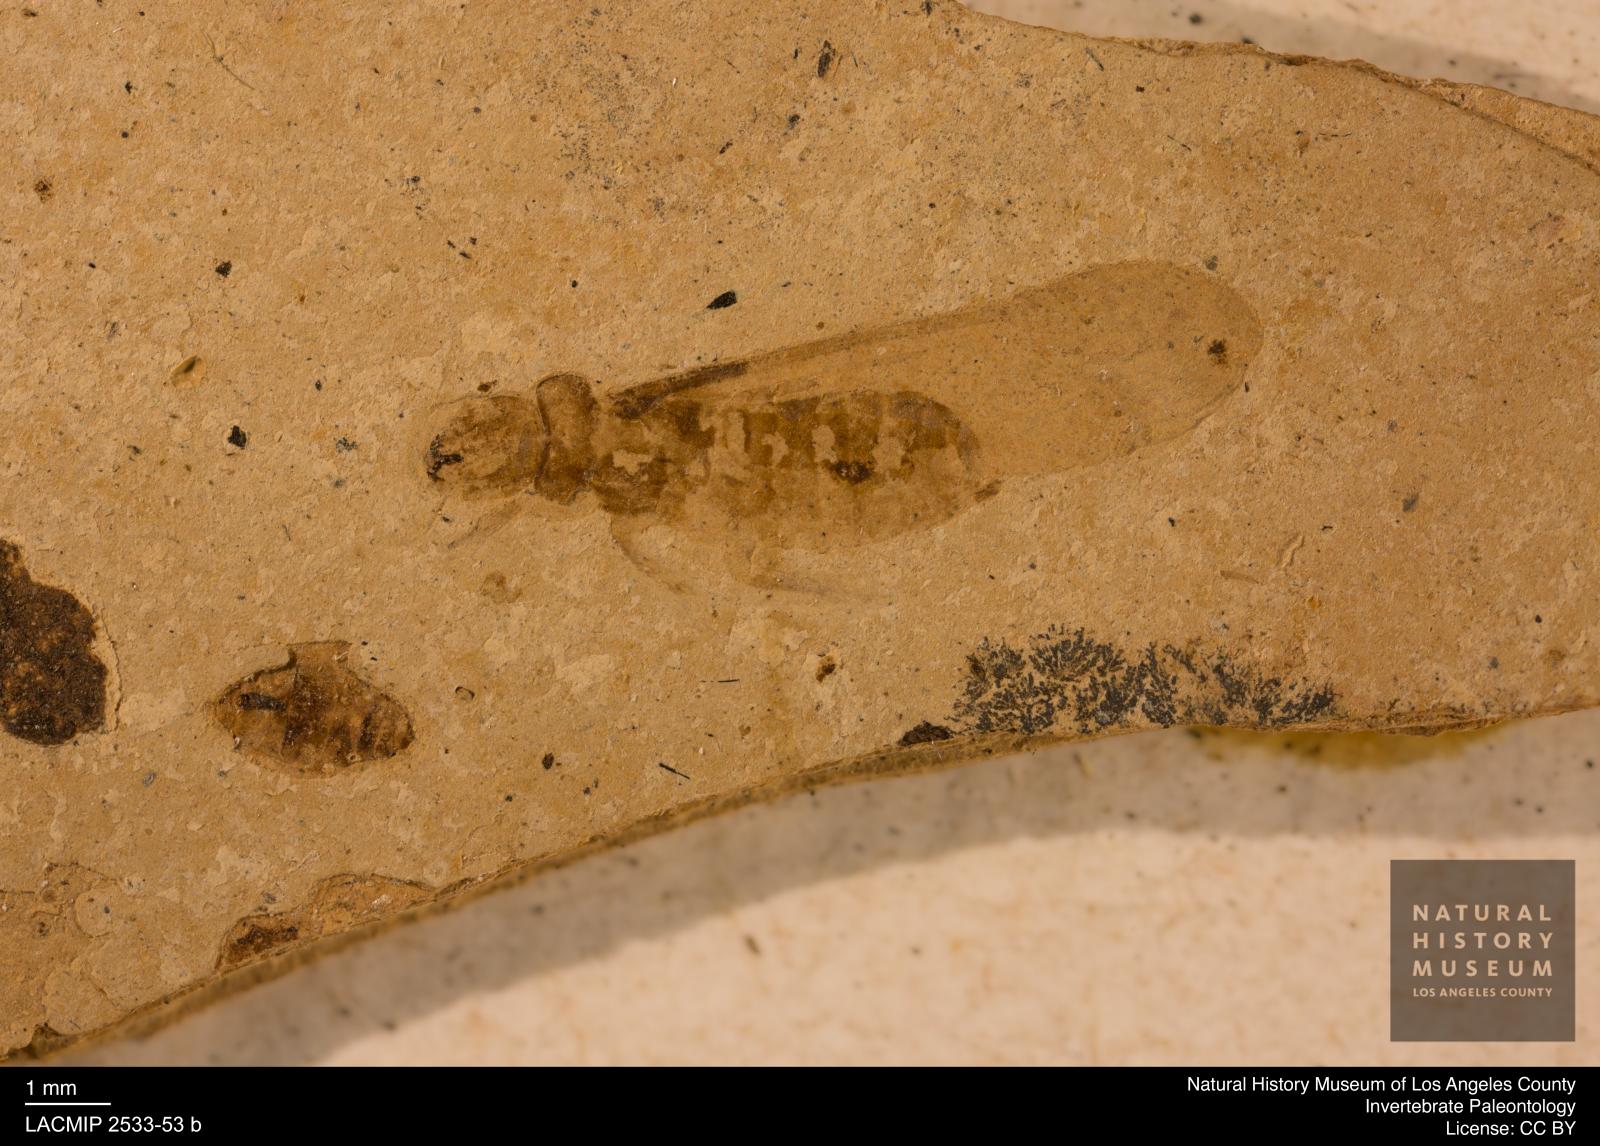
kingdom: Animalia
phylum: Arthropoda
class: Insecta
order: Blattodea
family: Kalotermitidae
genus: Kalotermes
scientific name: Kalotermes rhenanus
